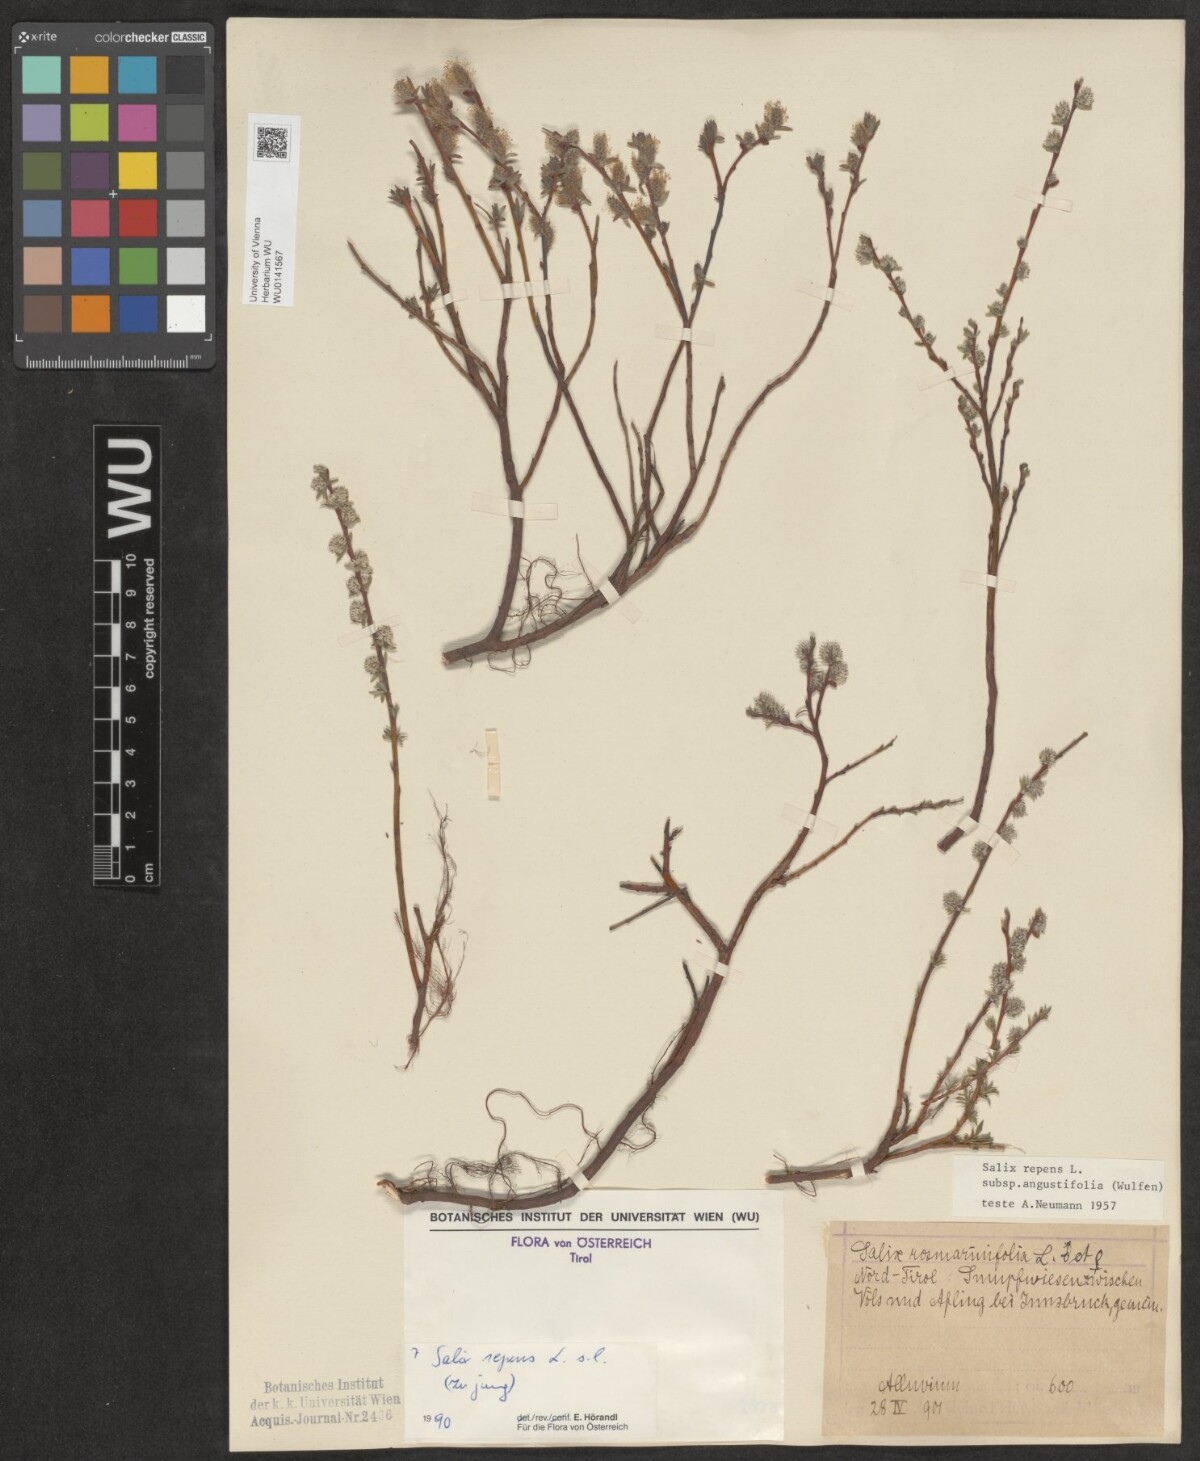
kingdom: Plantae
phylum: Tracheophyta
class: Magnoliopsida
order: Malpighiales
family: Salicaceae
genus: Salix
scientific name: Salix repens
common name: Creeping willow
